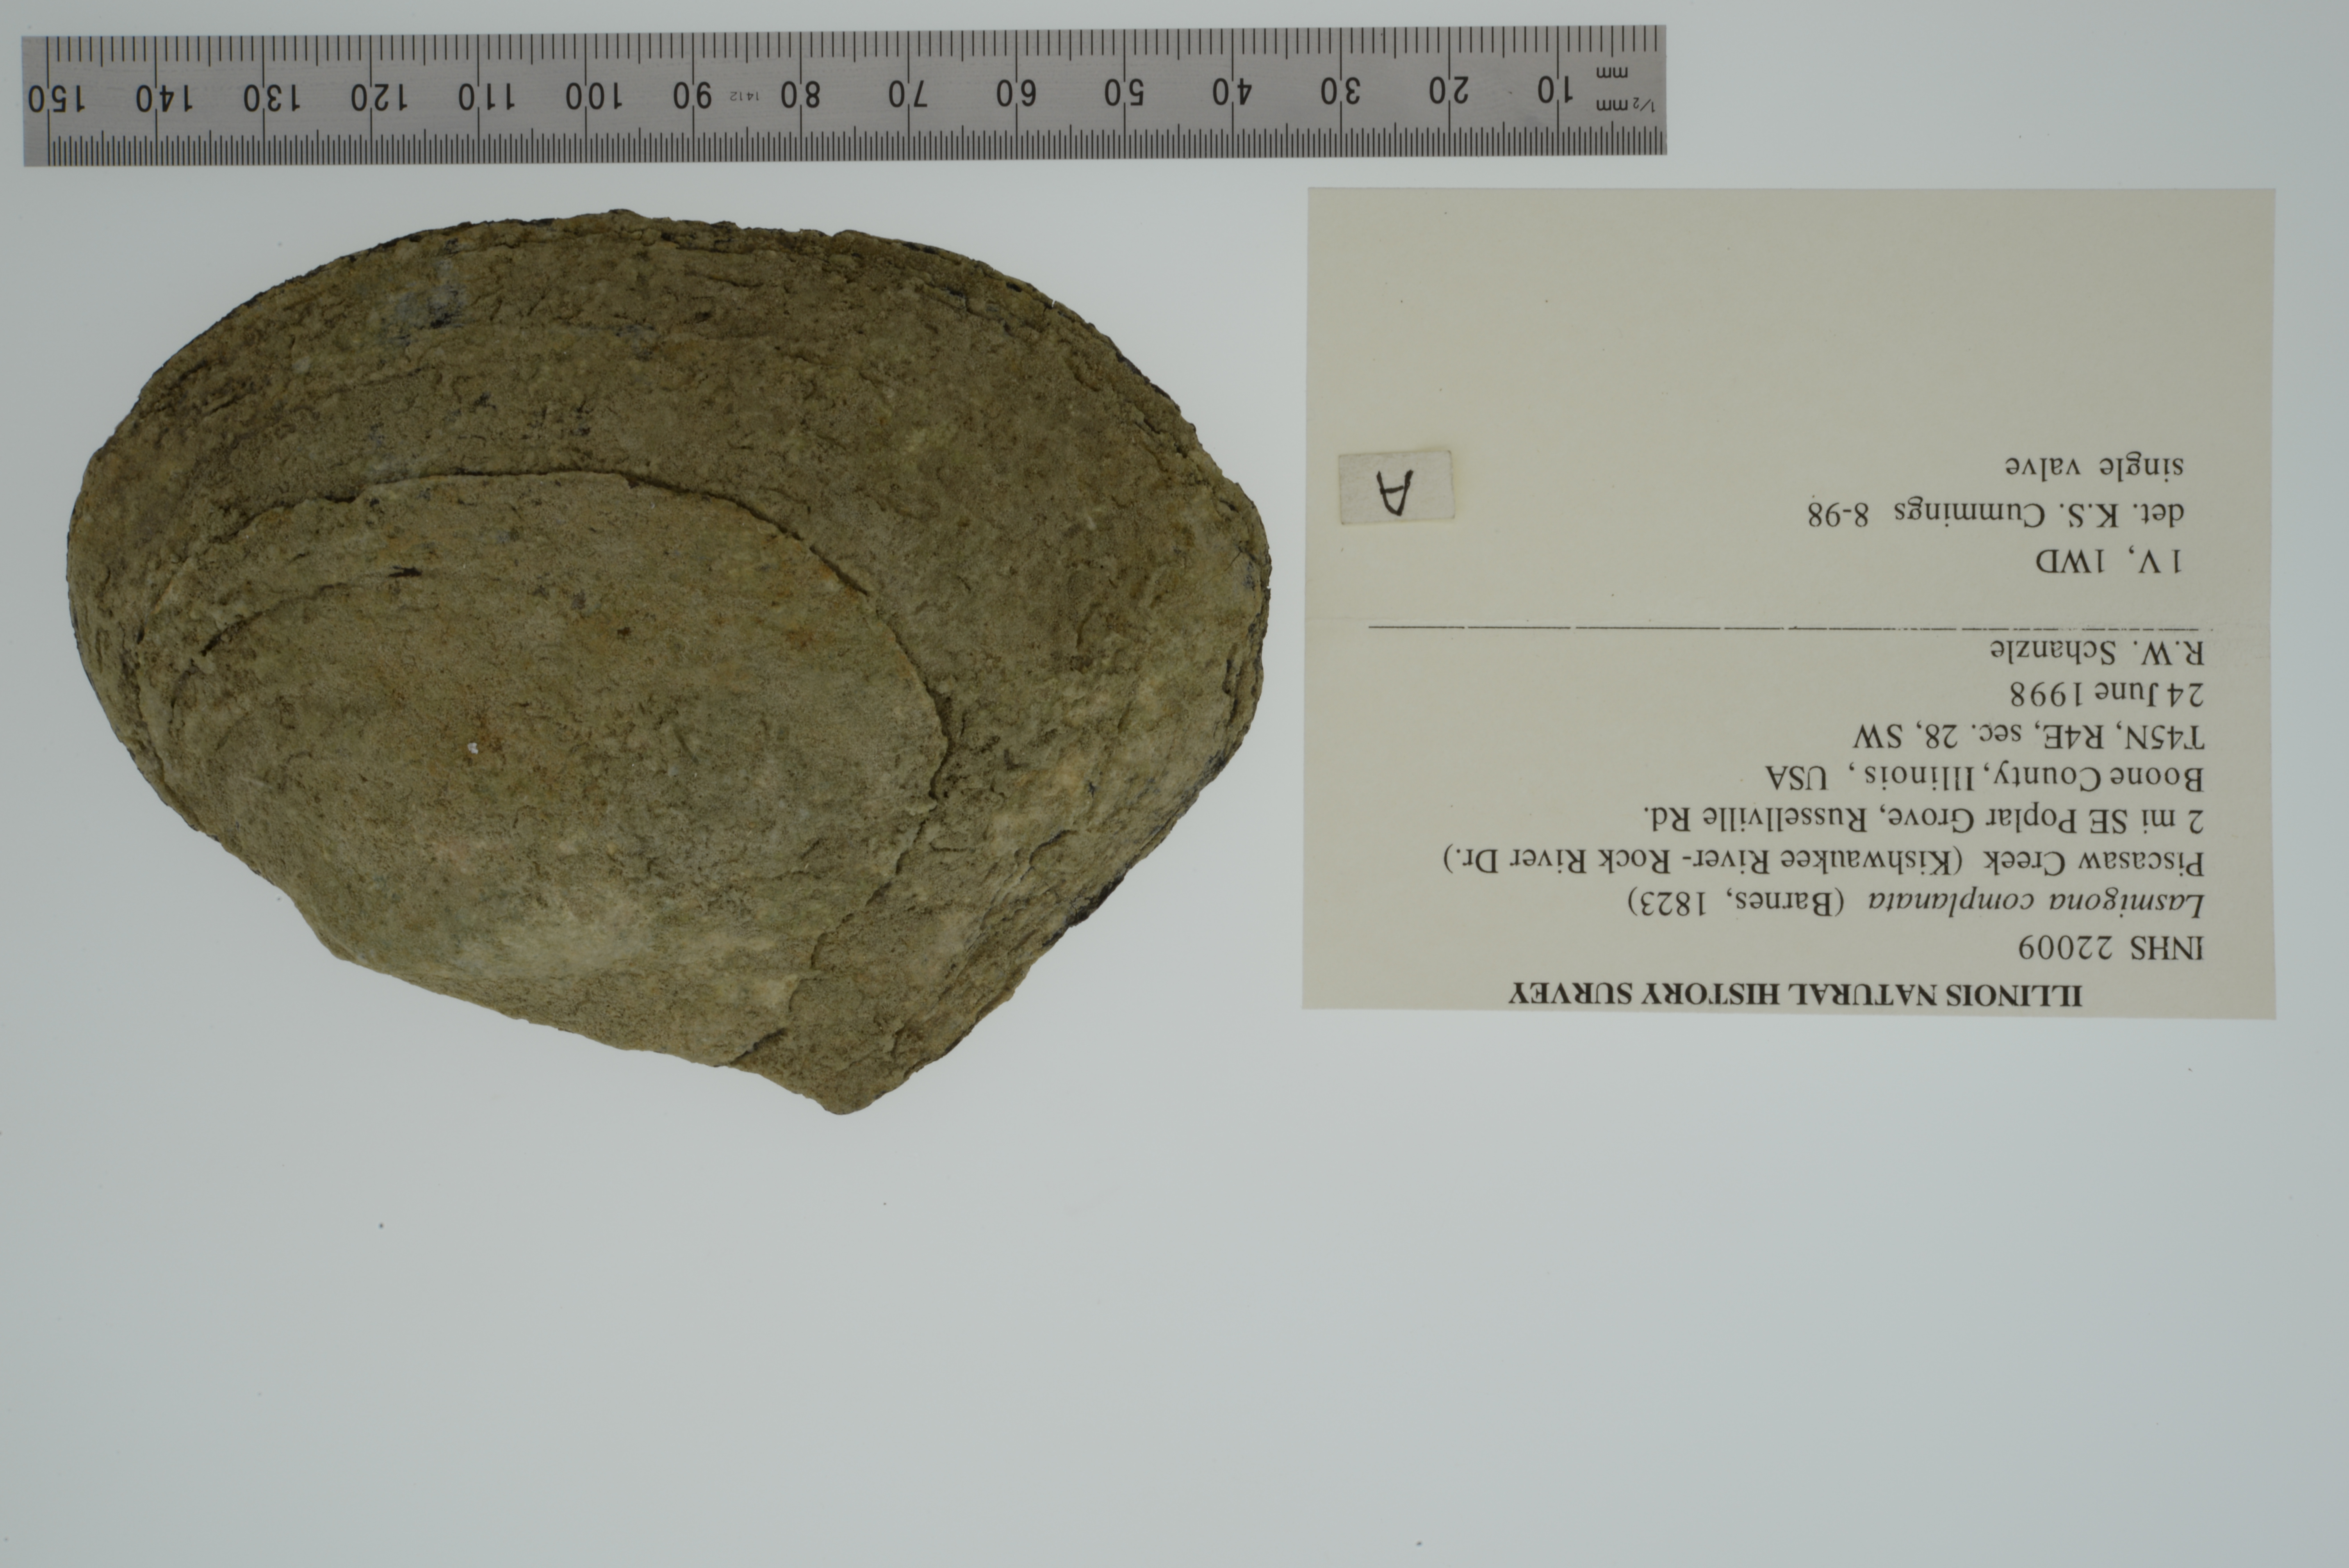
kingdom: Animalia
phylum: Mollusca
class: Bivalvia
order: Unionida
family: Unionidae
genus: Lasmigona
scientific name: Lasmigona complanata
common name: White heelsplitter
